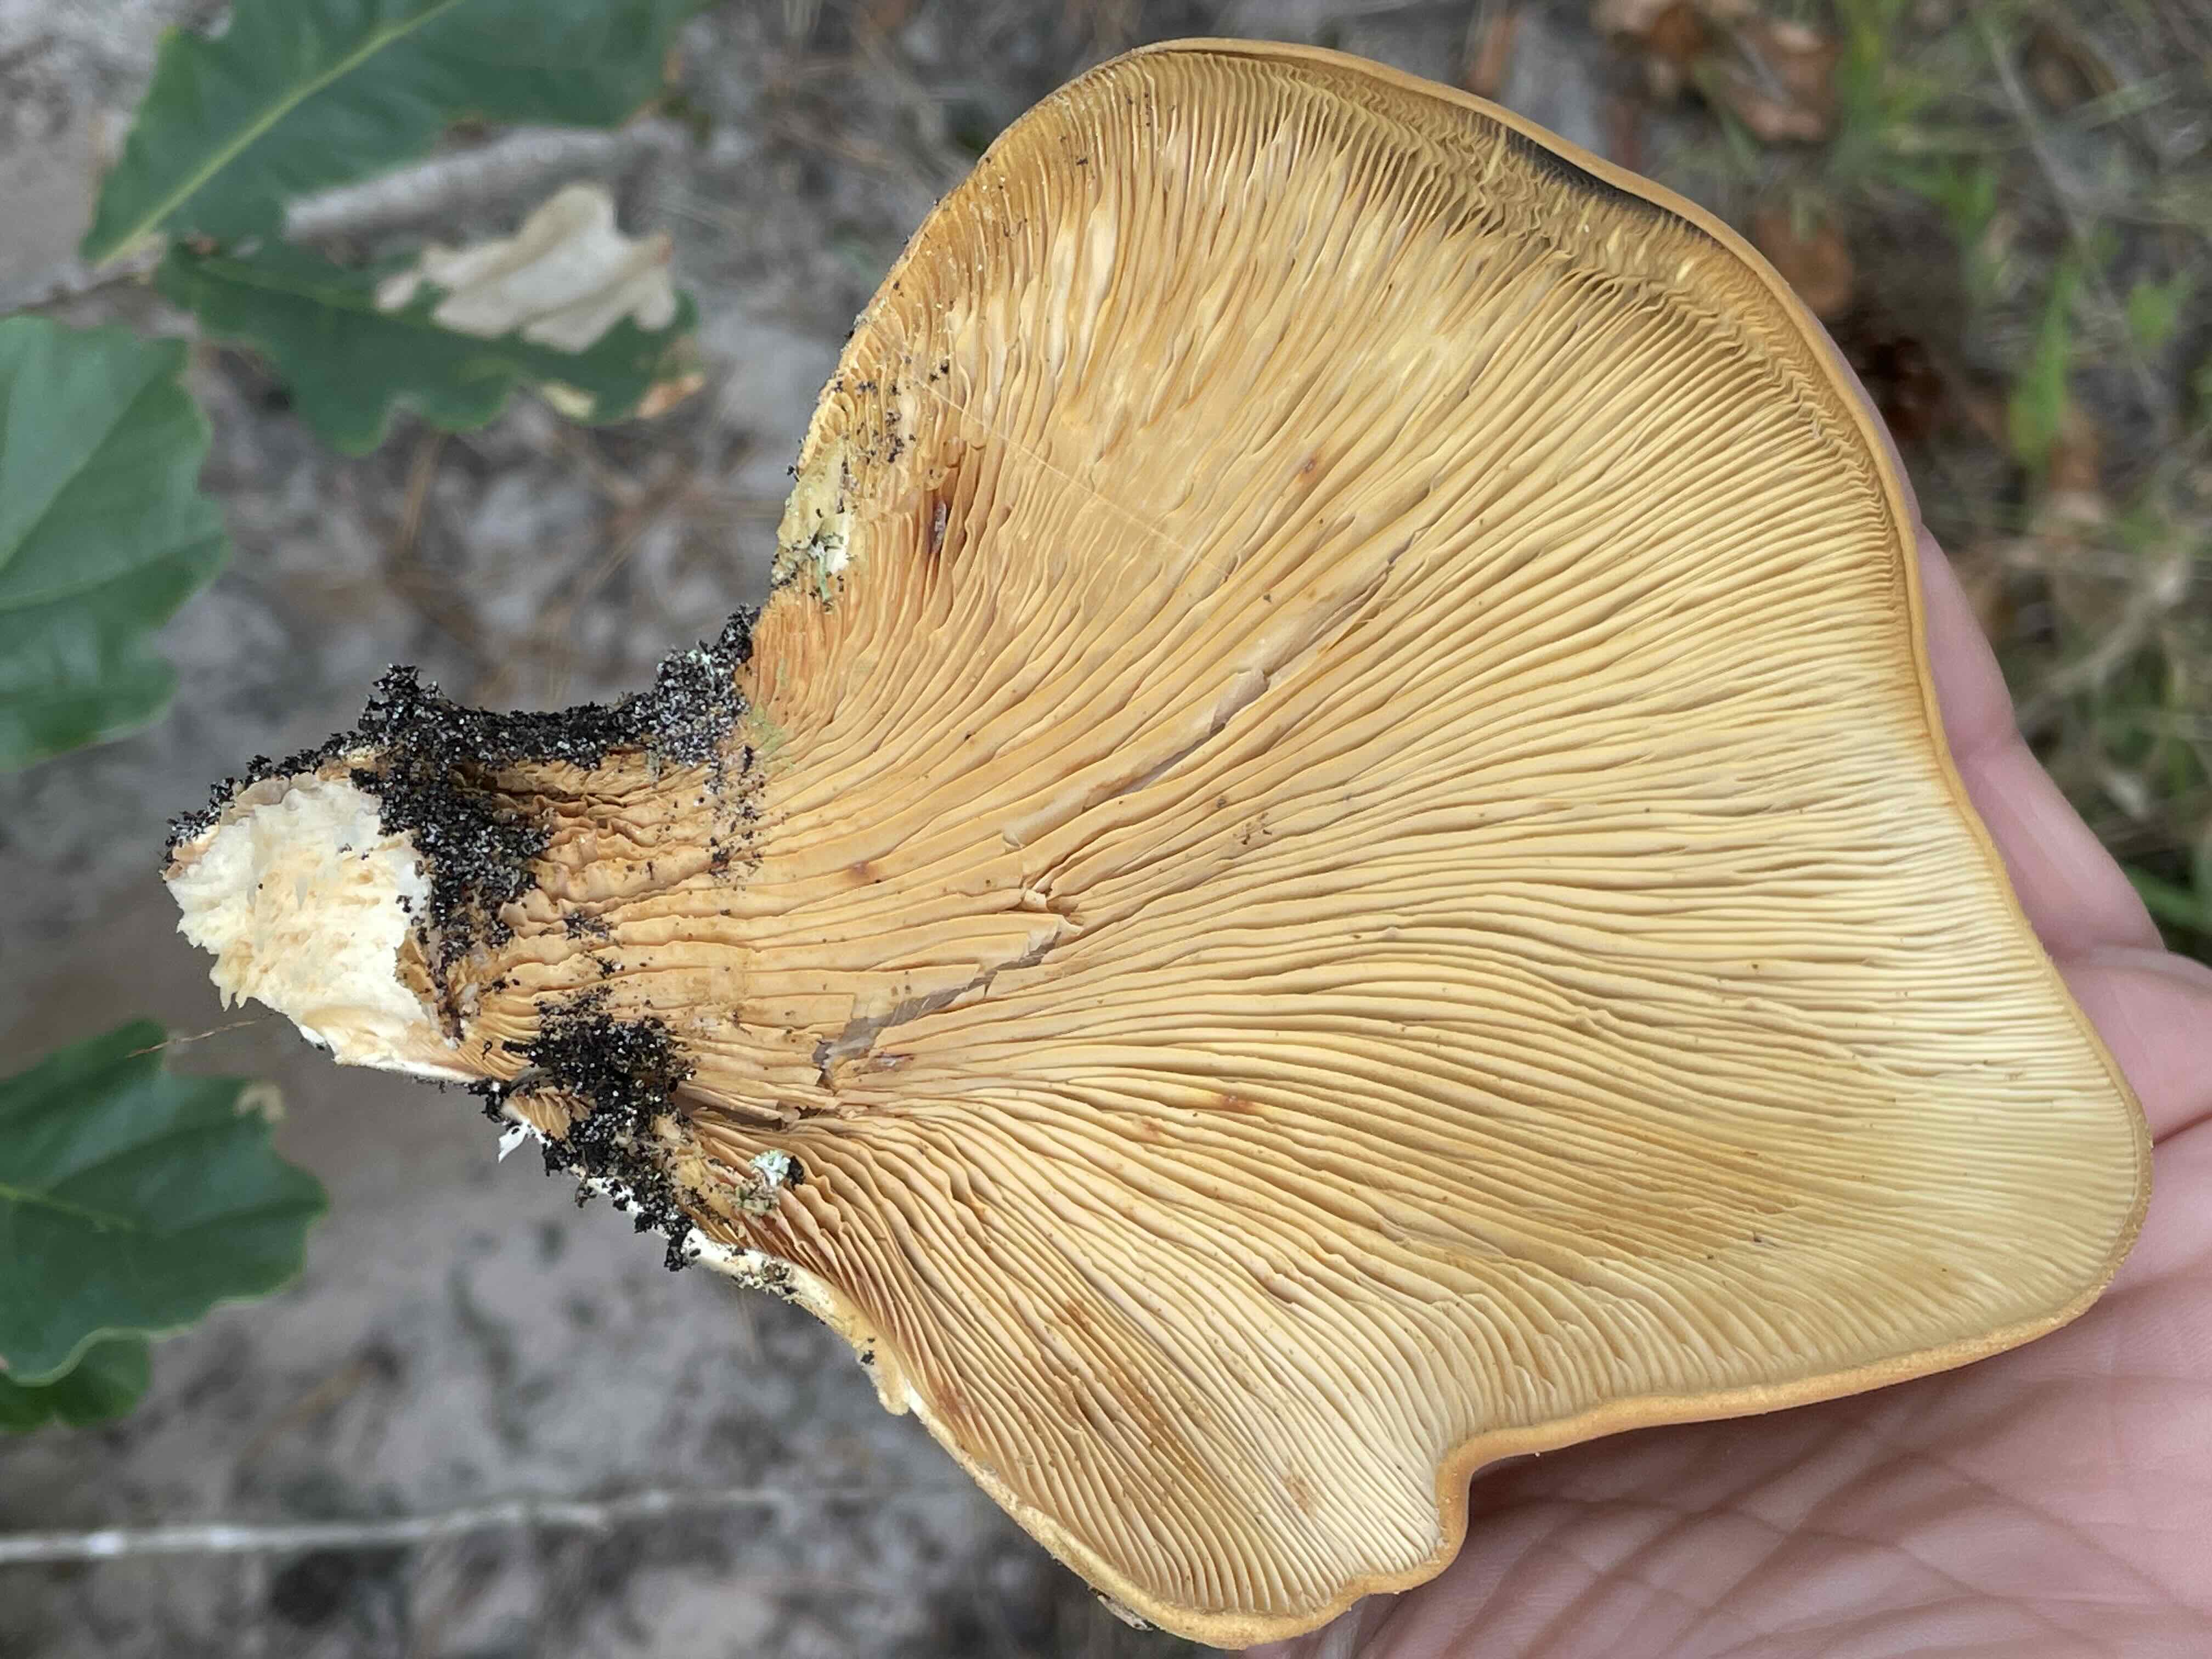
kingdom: Fungi
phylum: Basidiomycota
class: Agaricomycetes
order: Boletales
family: Tapinellaceae
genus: Tapinella
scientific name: Tapinella atrotomentosa
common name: sortfiltet viftesvamp
